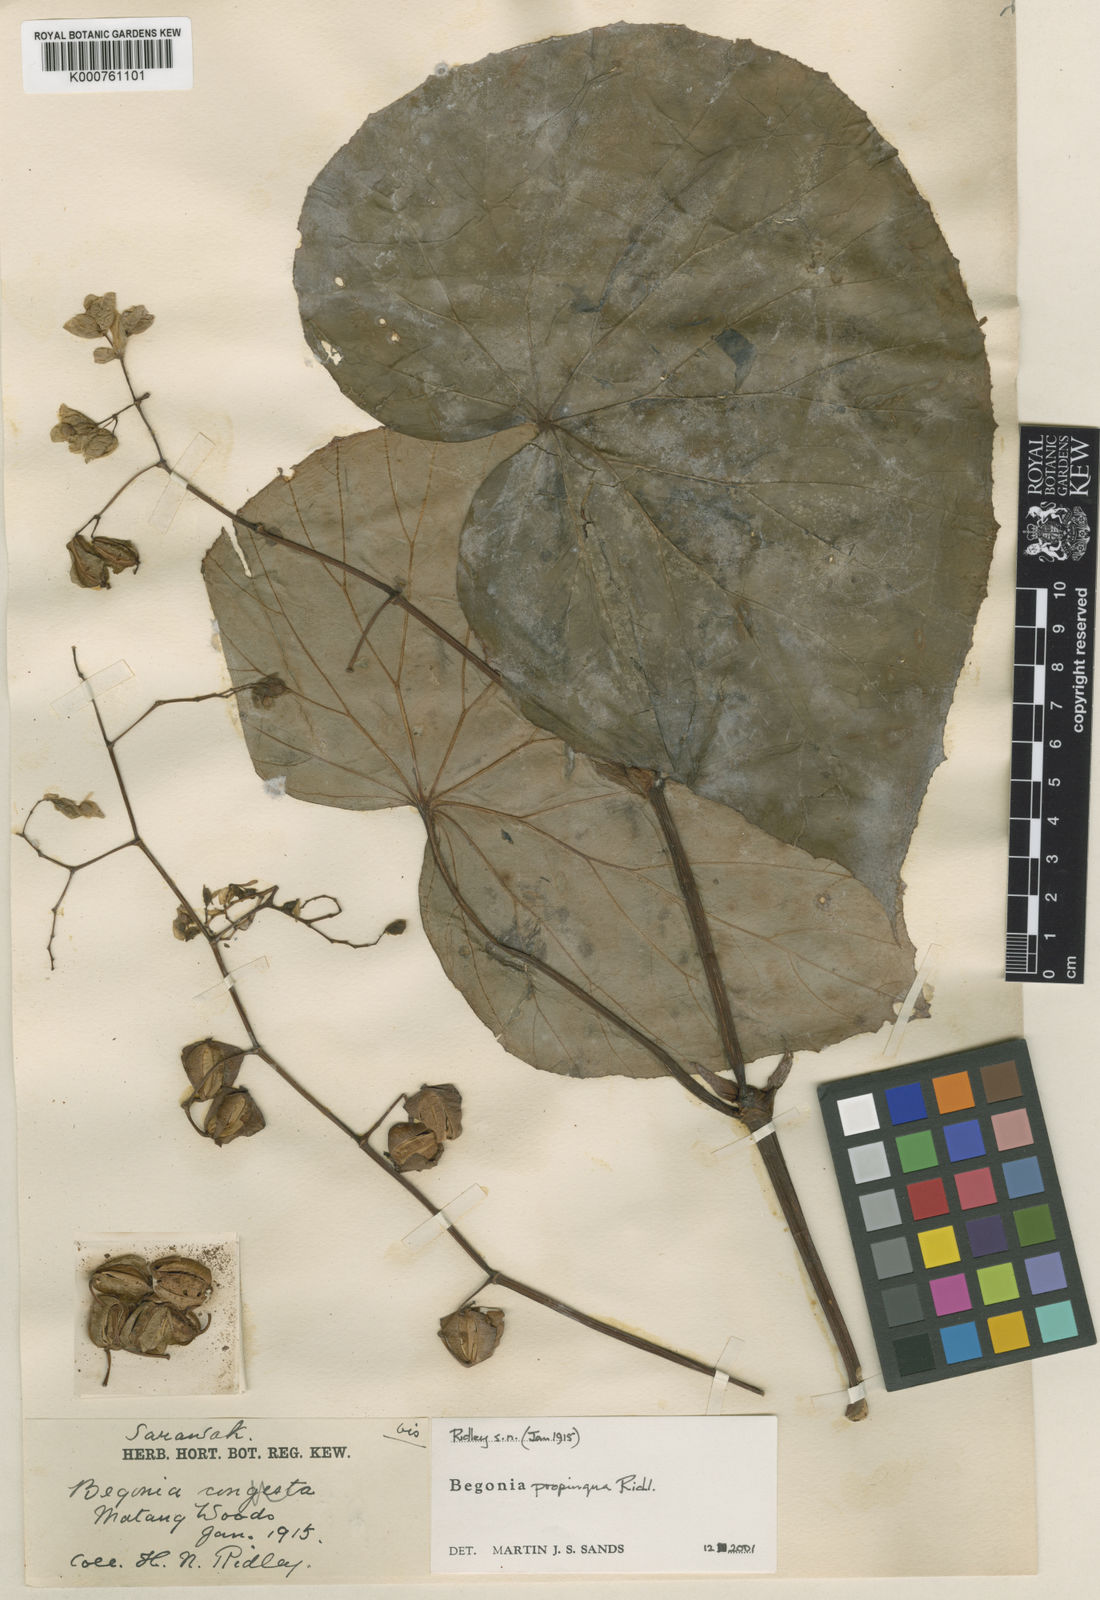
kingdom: Plantae
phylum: Tracheophyta
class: Magnoliopsida
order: Cucurbitales
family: Begoniaceae
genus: Begonia
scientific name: Begonia propinqua
